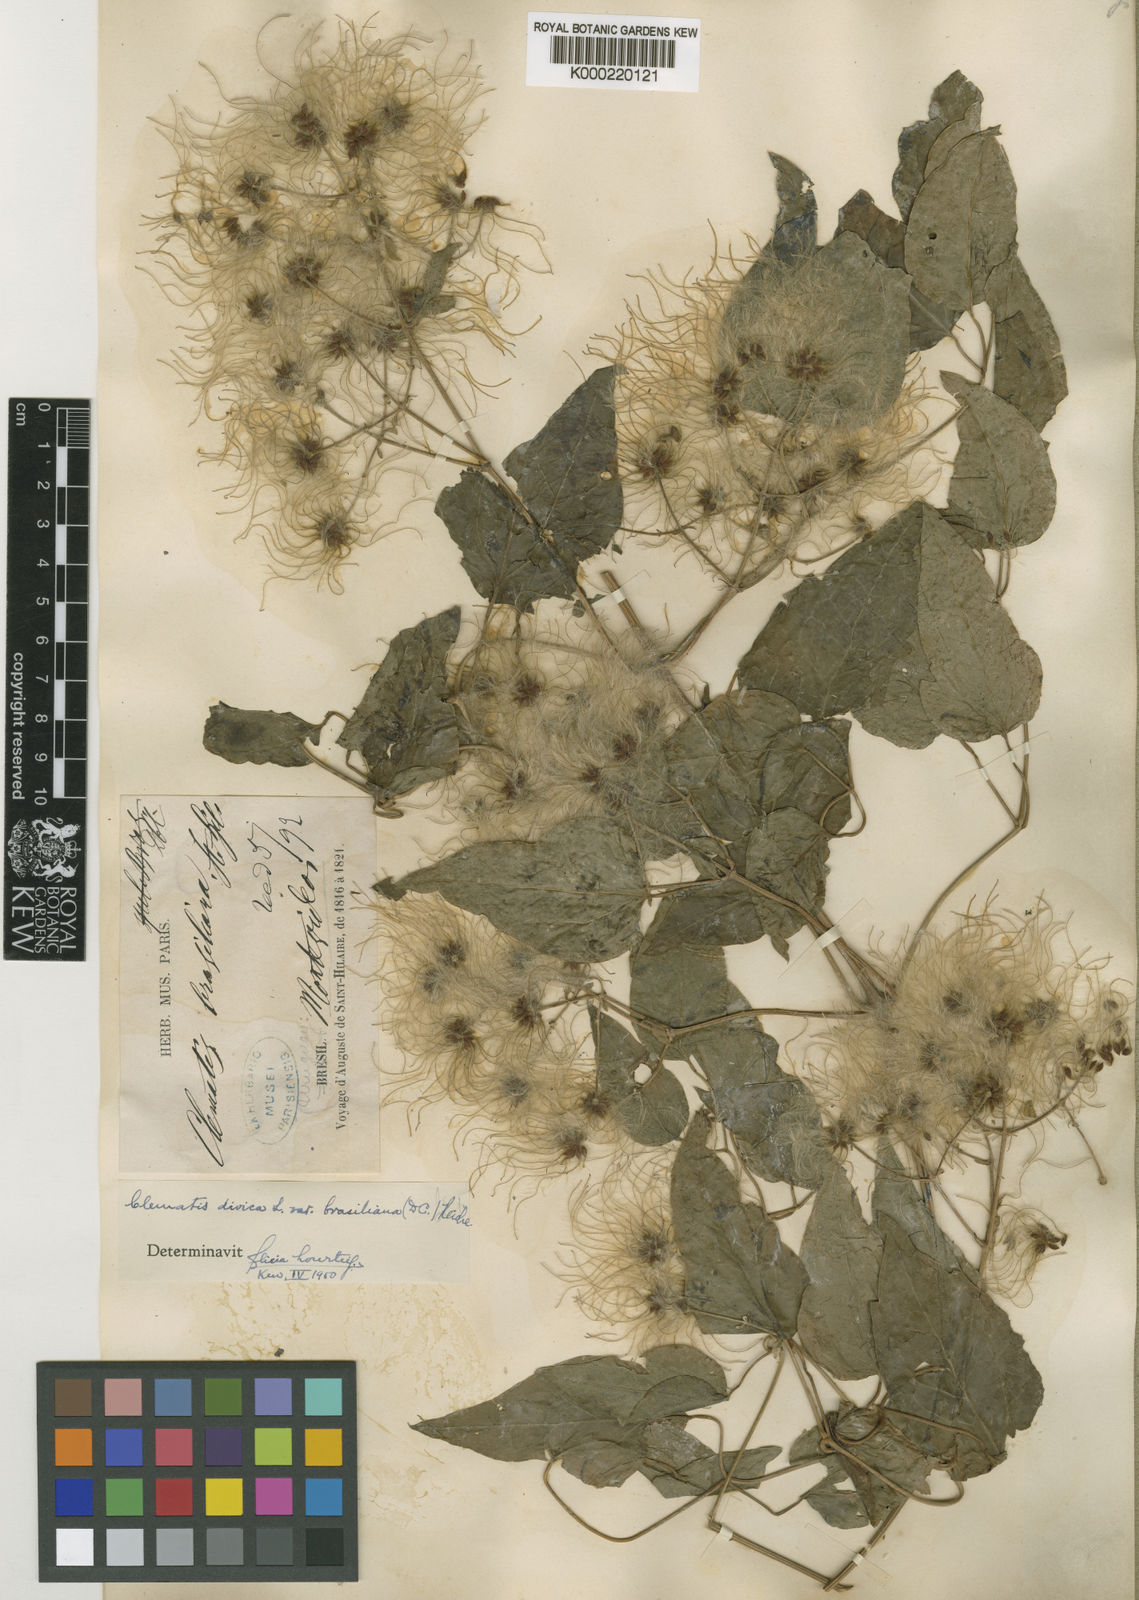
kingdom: Plantae
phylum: Tracheophyta
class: Magnoliopsida
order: Ranunculales
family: Ranunculaceae
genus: Clematis
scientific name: Clematis brasiliana
